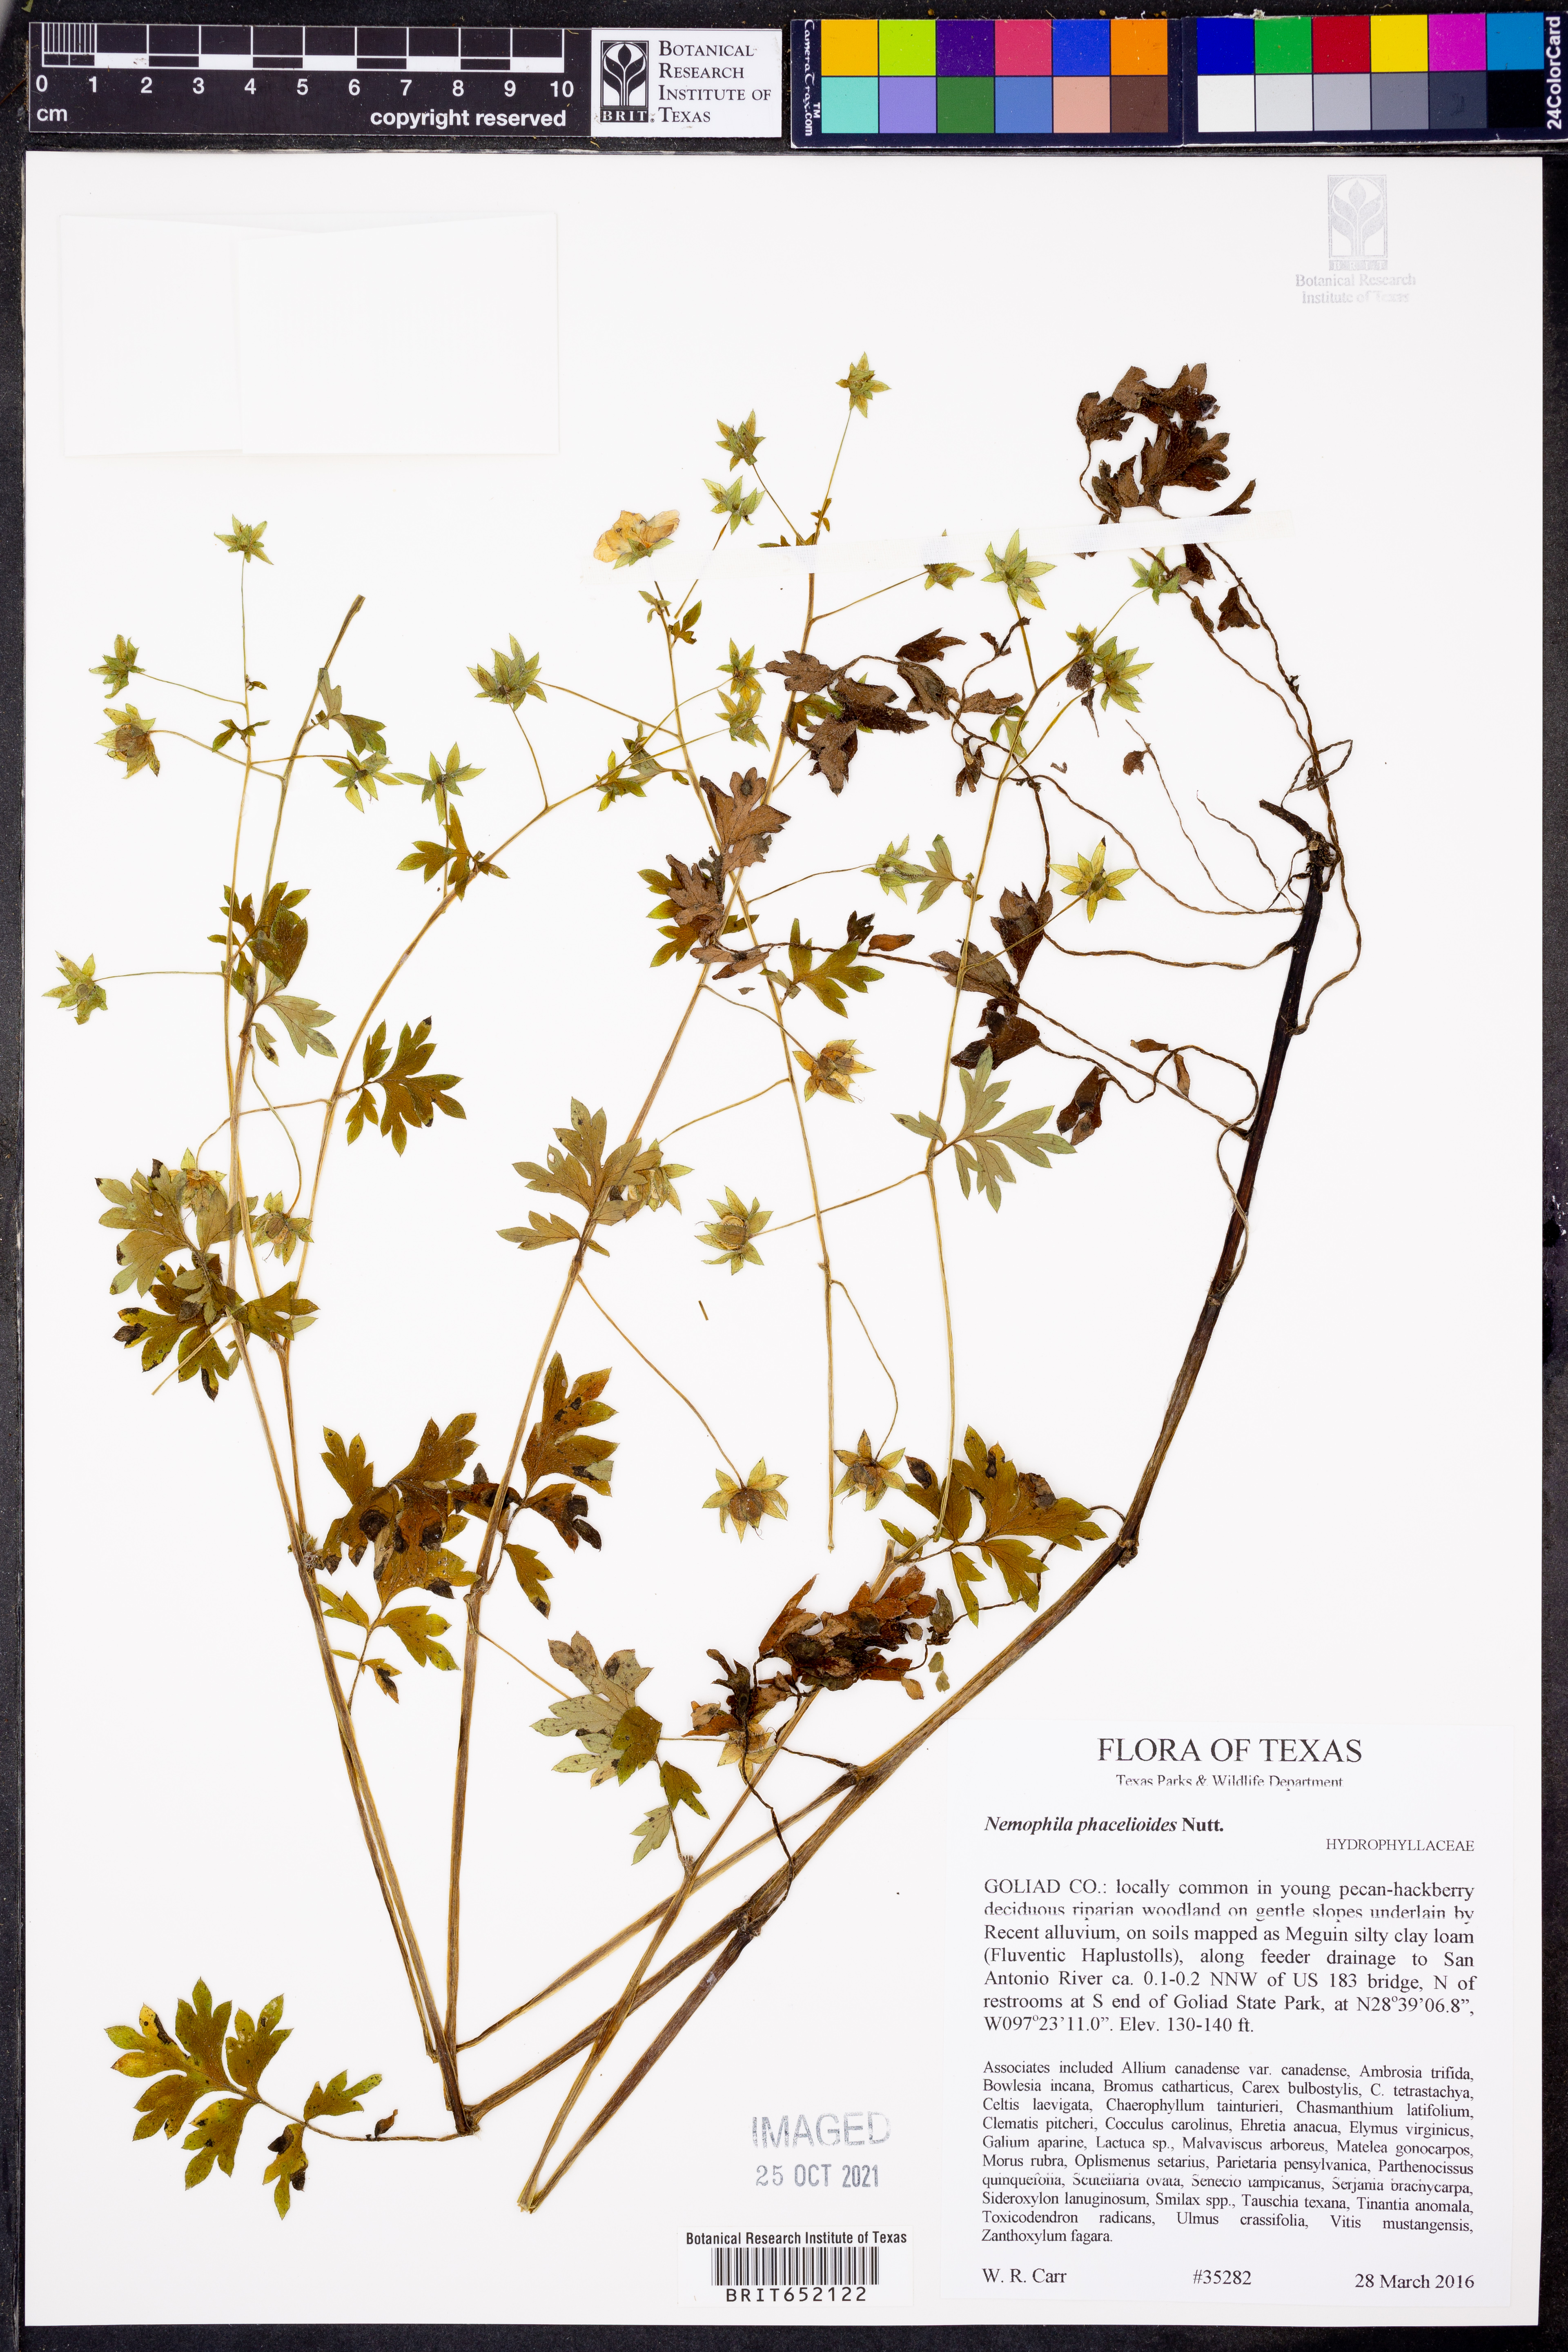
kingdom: Plantae
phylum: Tracheophyta
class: Magnoliopsida
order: Boraginales
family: Hydrophyllaceae
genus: Nemophila
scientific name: Nemophila phacelioides
